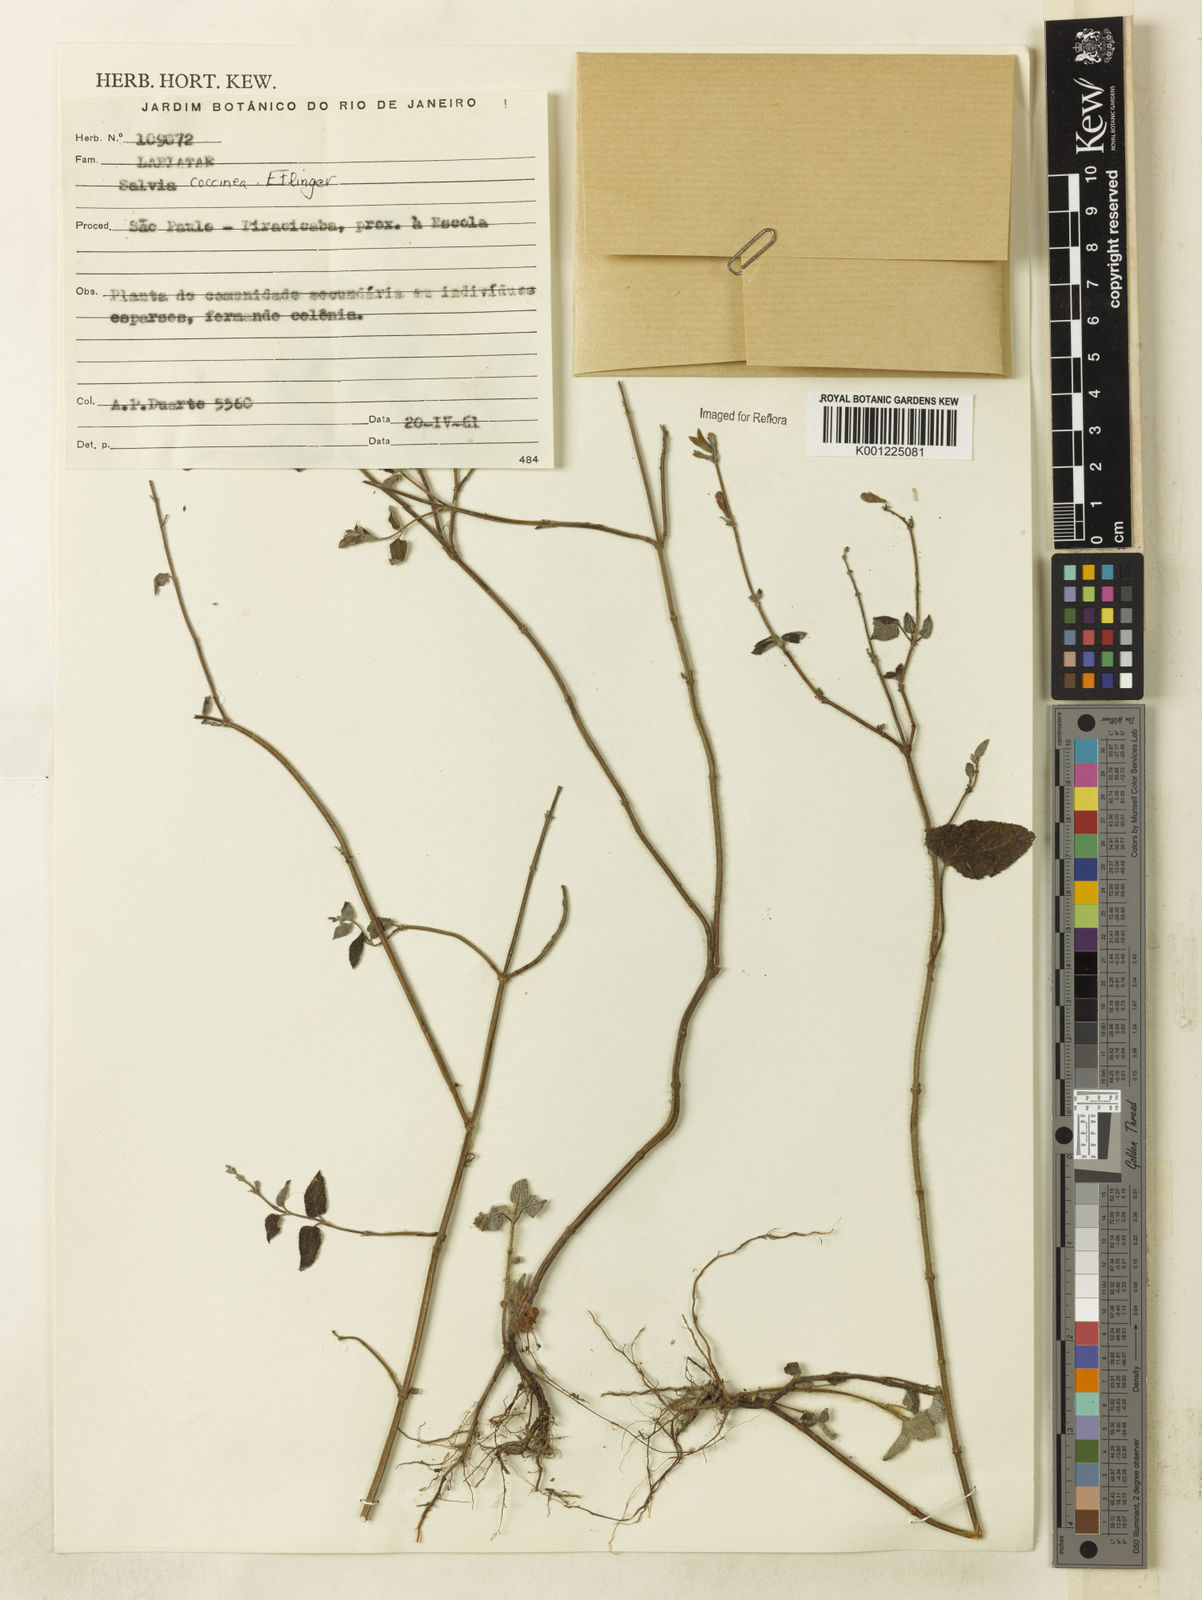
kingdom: Plantae
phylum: Tracheophyta
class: Magnoliopsida
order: Lamiales
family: Lamiaceae
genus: Salvia
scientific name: Salvia coccinea
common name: Blood sage
